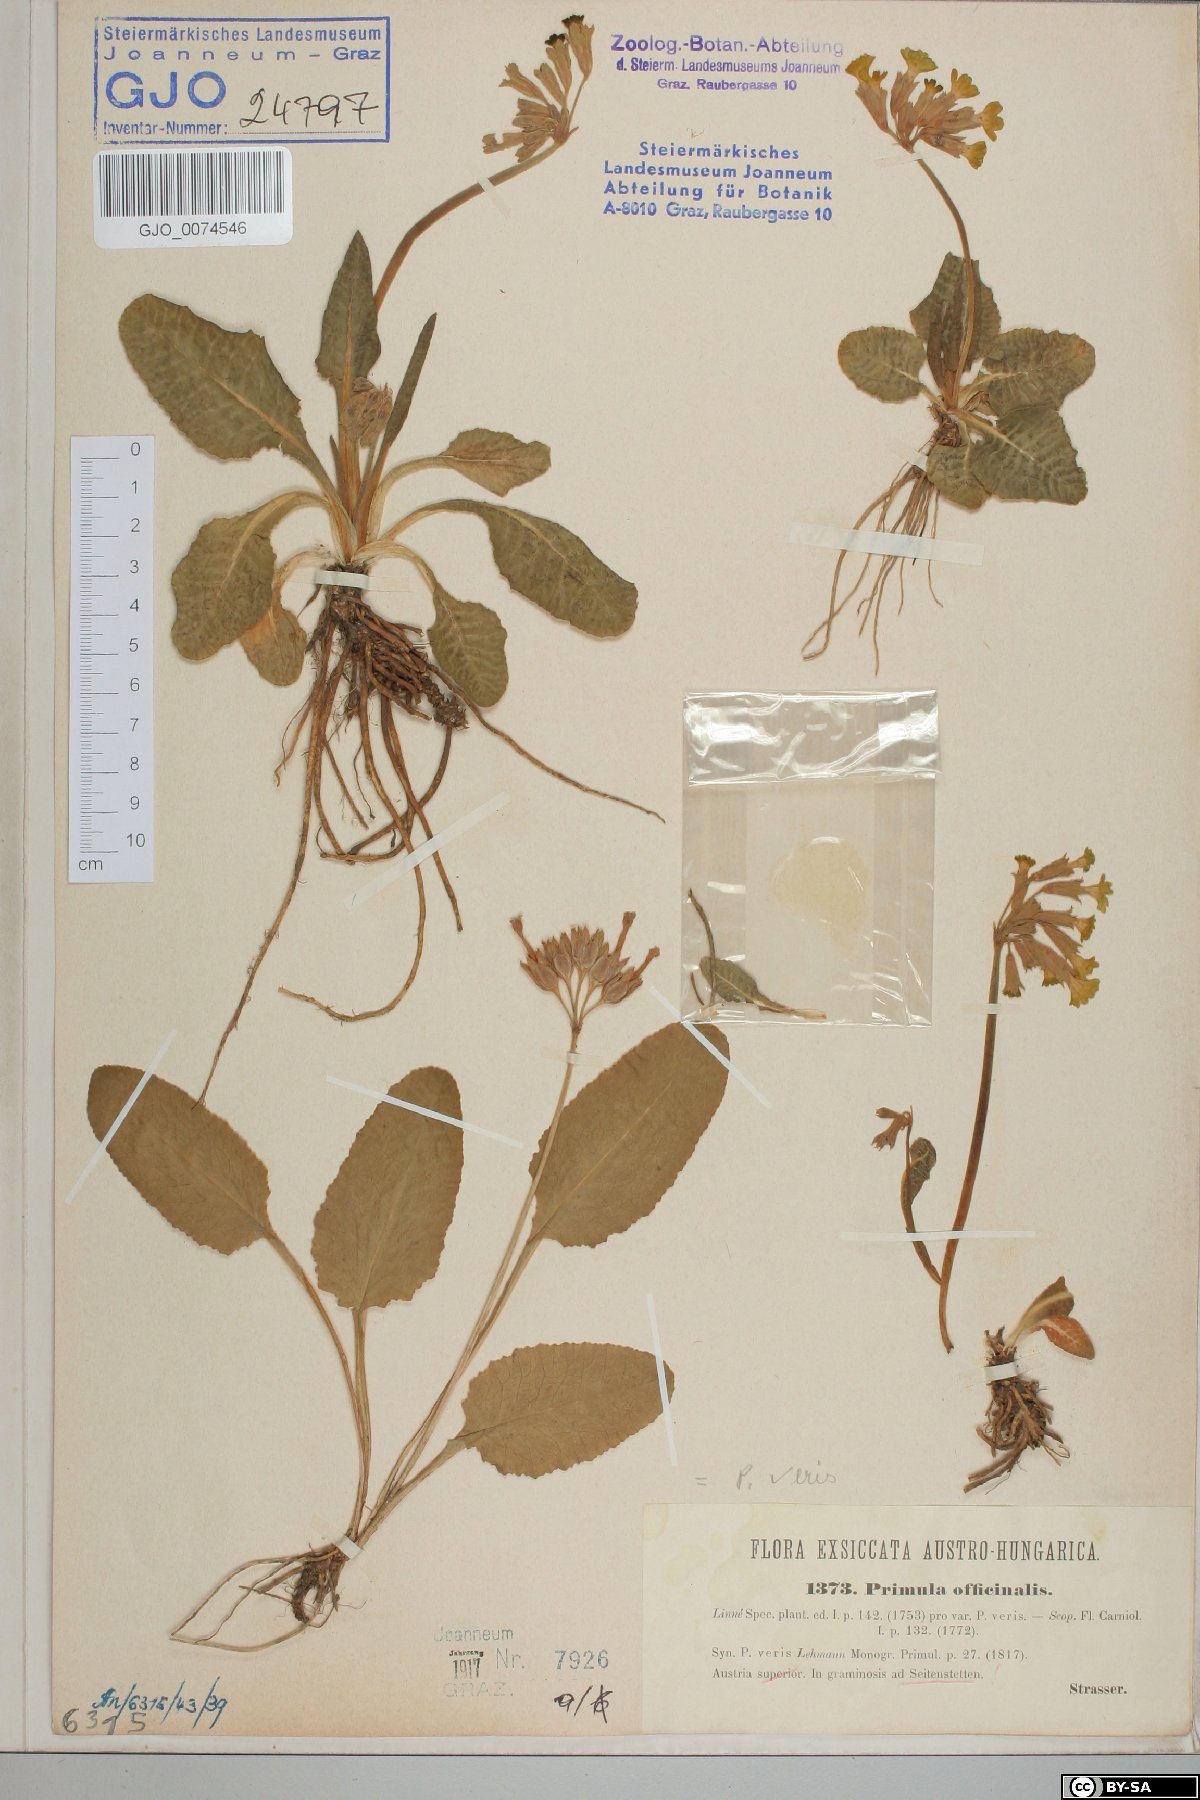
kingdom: Plantae
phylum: Tracheophyta
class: Magnoliopsida
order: Ericales
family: Primulaceae
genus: Primula
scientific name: Primula veris
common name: Cowslip
